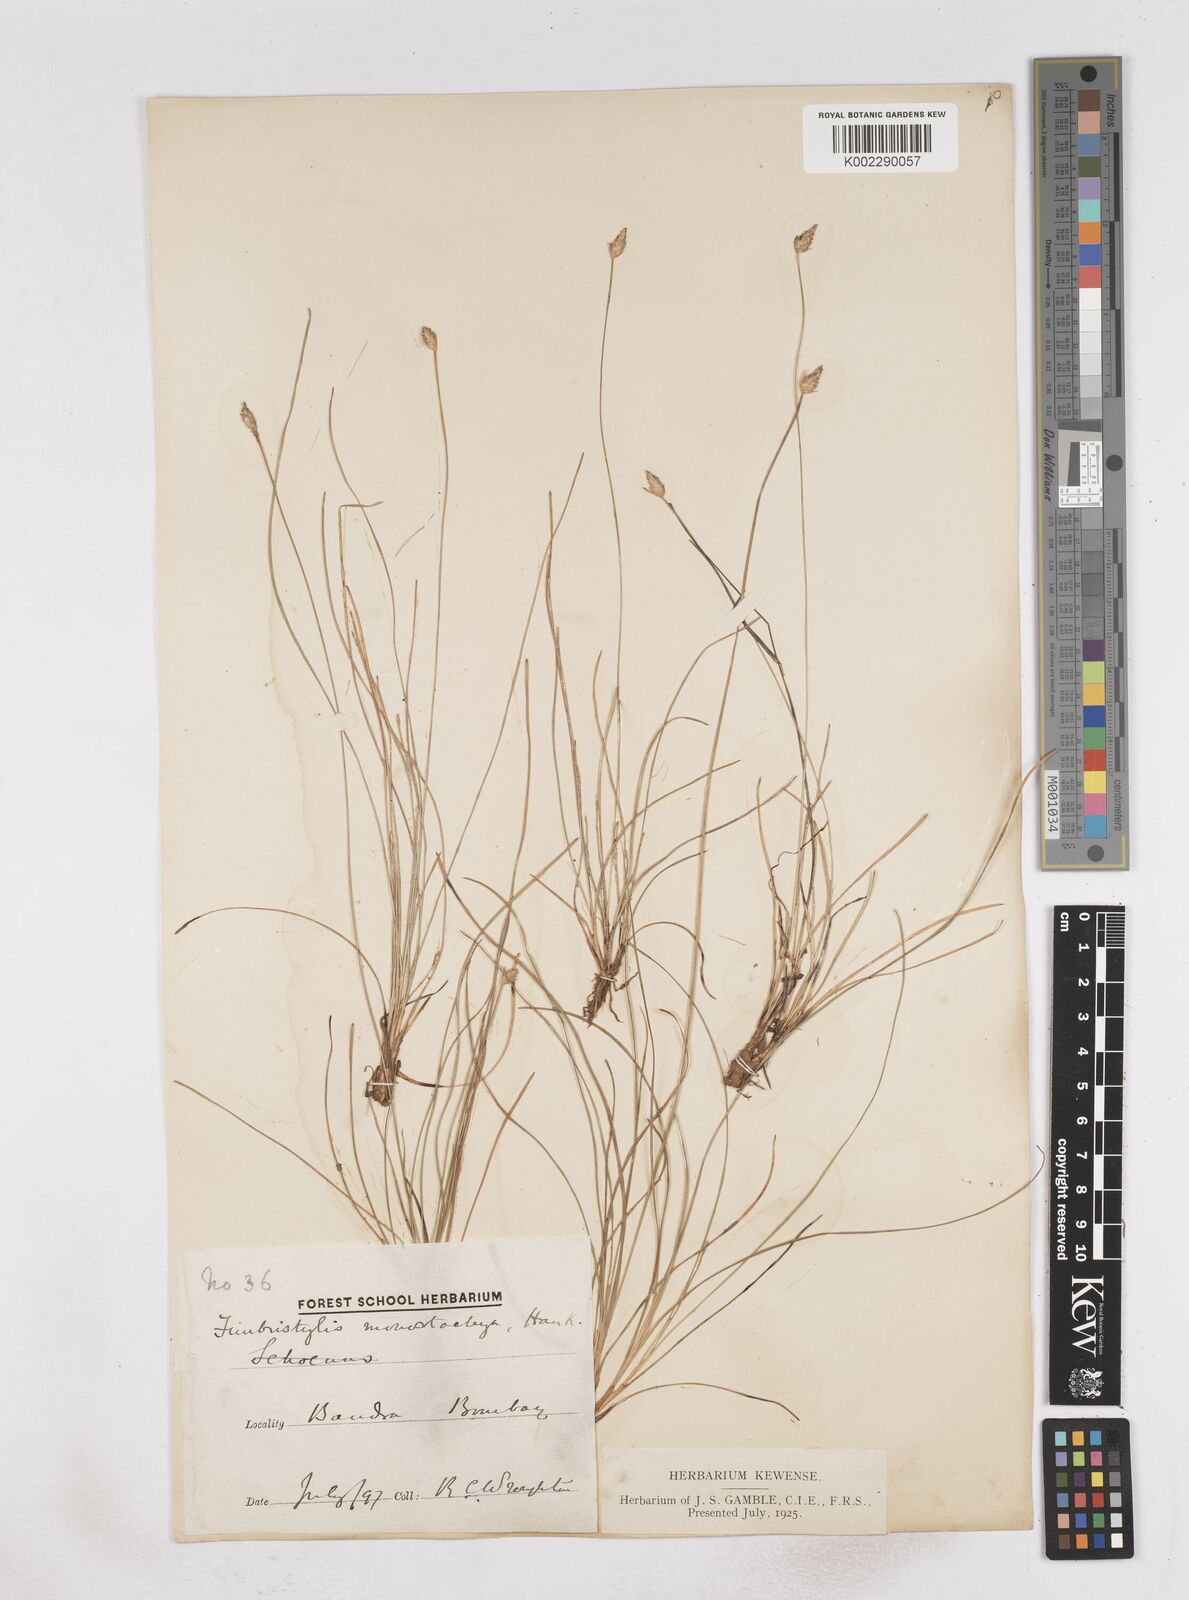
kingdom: Plantae
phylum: Tracheophyta
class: Liliopsida
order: Poales
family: Cyperaceae
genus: Abildgaardia
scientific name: Abildgaardia ovata
